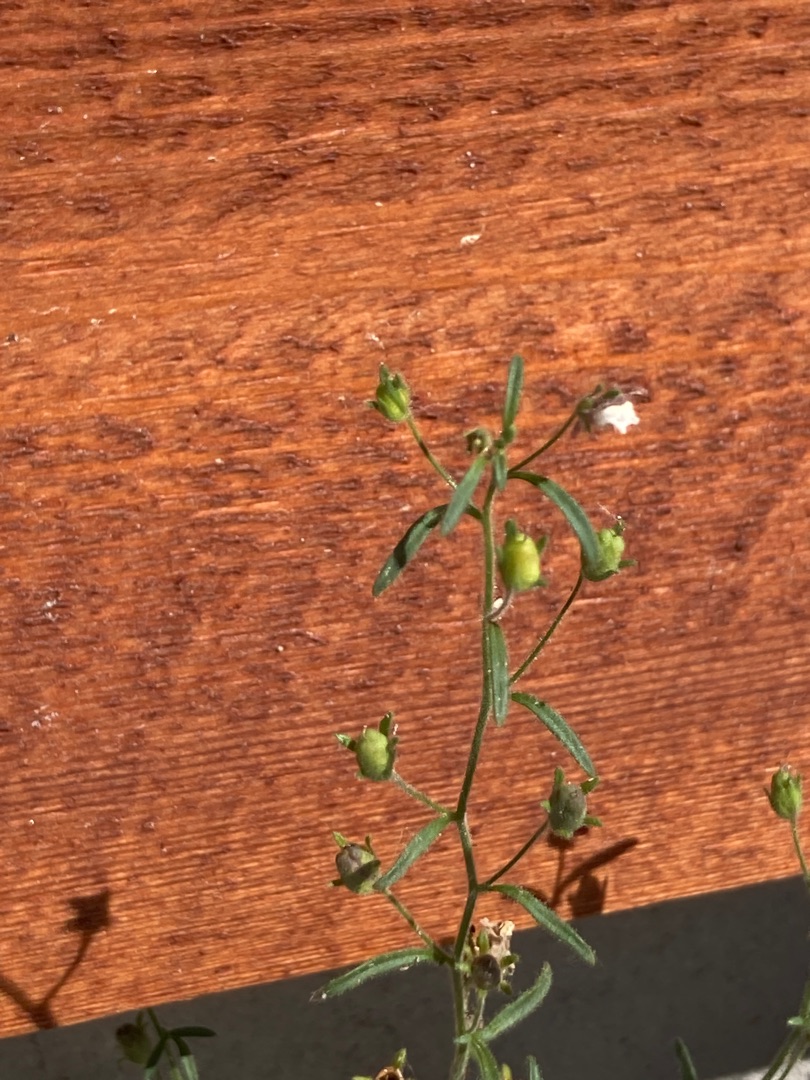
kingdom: Plantae
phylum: Tracheophyta
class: Magnoliopsida
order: Lamiales
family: Plantaginaceae
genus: Chaenorhinum
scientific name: Chaenorhinum minus
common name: Liden torskemund
